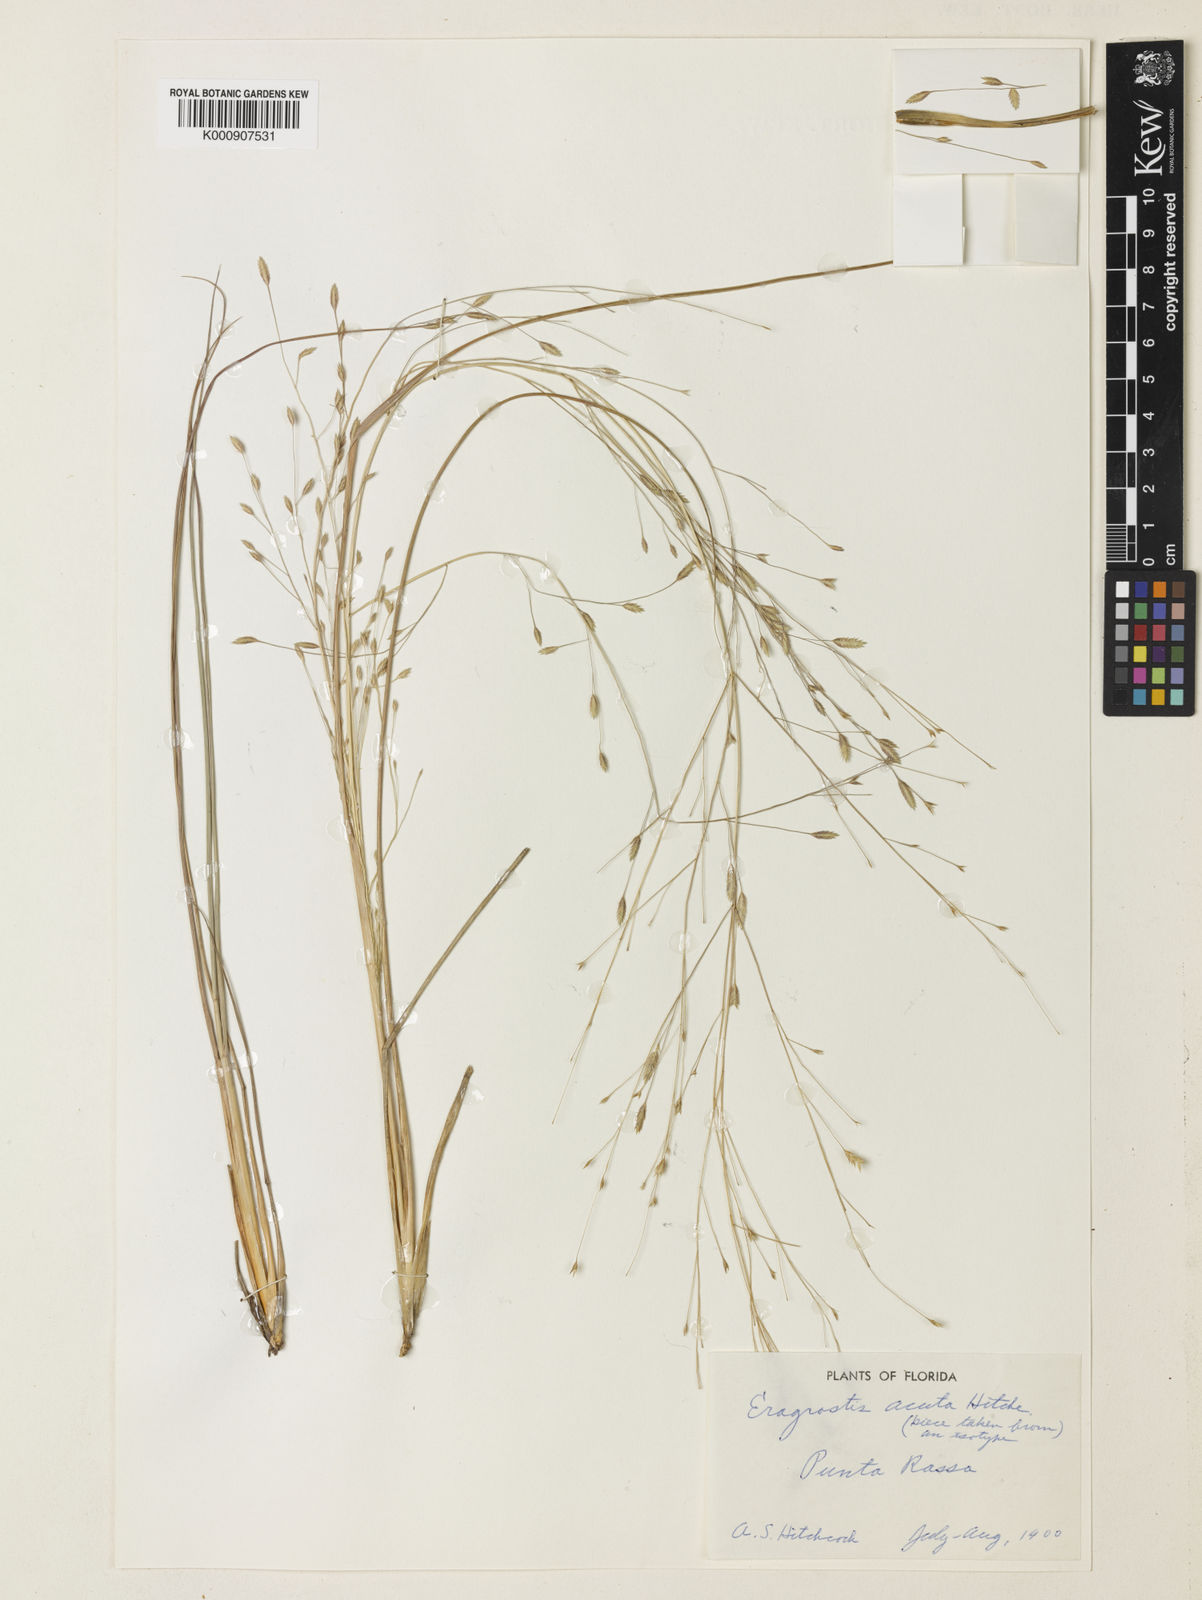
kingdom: Plantae
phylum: Tracheophyta
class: Liliopsida
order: Poales
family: Poaceae
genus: Eragrostis
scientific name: Eragrostis refracta
